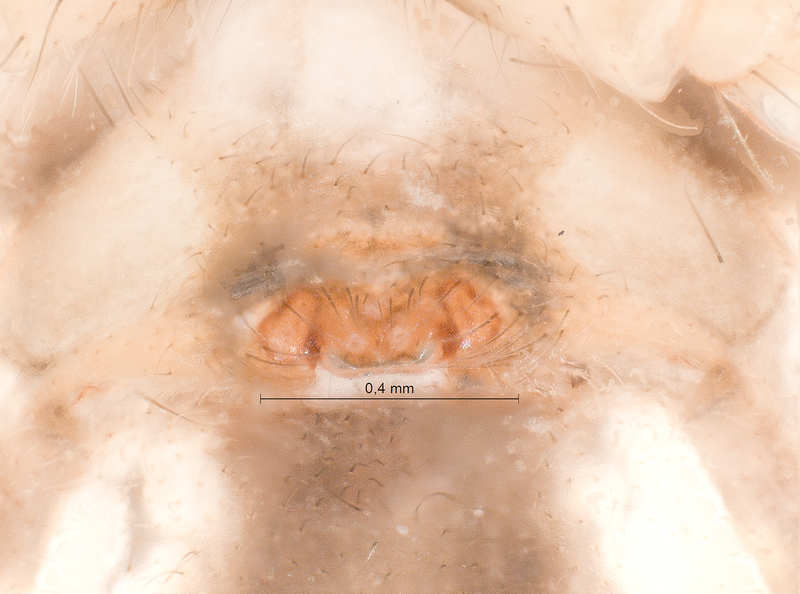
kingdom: Animalia
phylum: Arthropoda
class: Arachnida
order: Araneae
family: Tetragnathidae
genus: Metellina
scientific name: Metellina mengei
